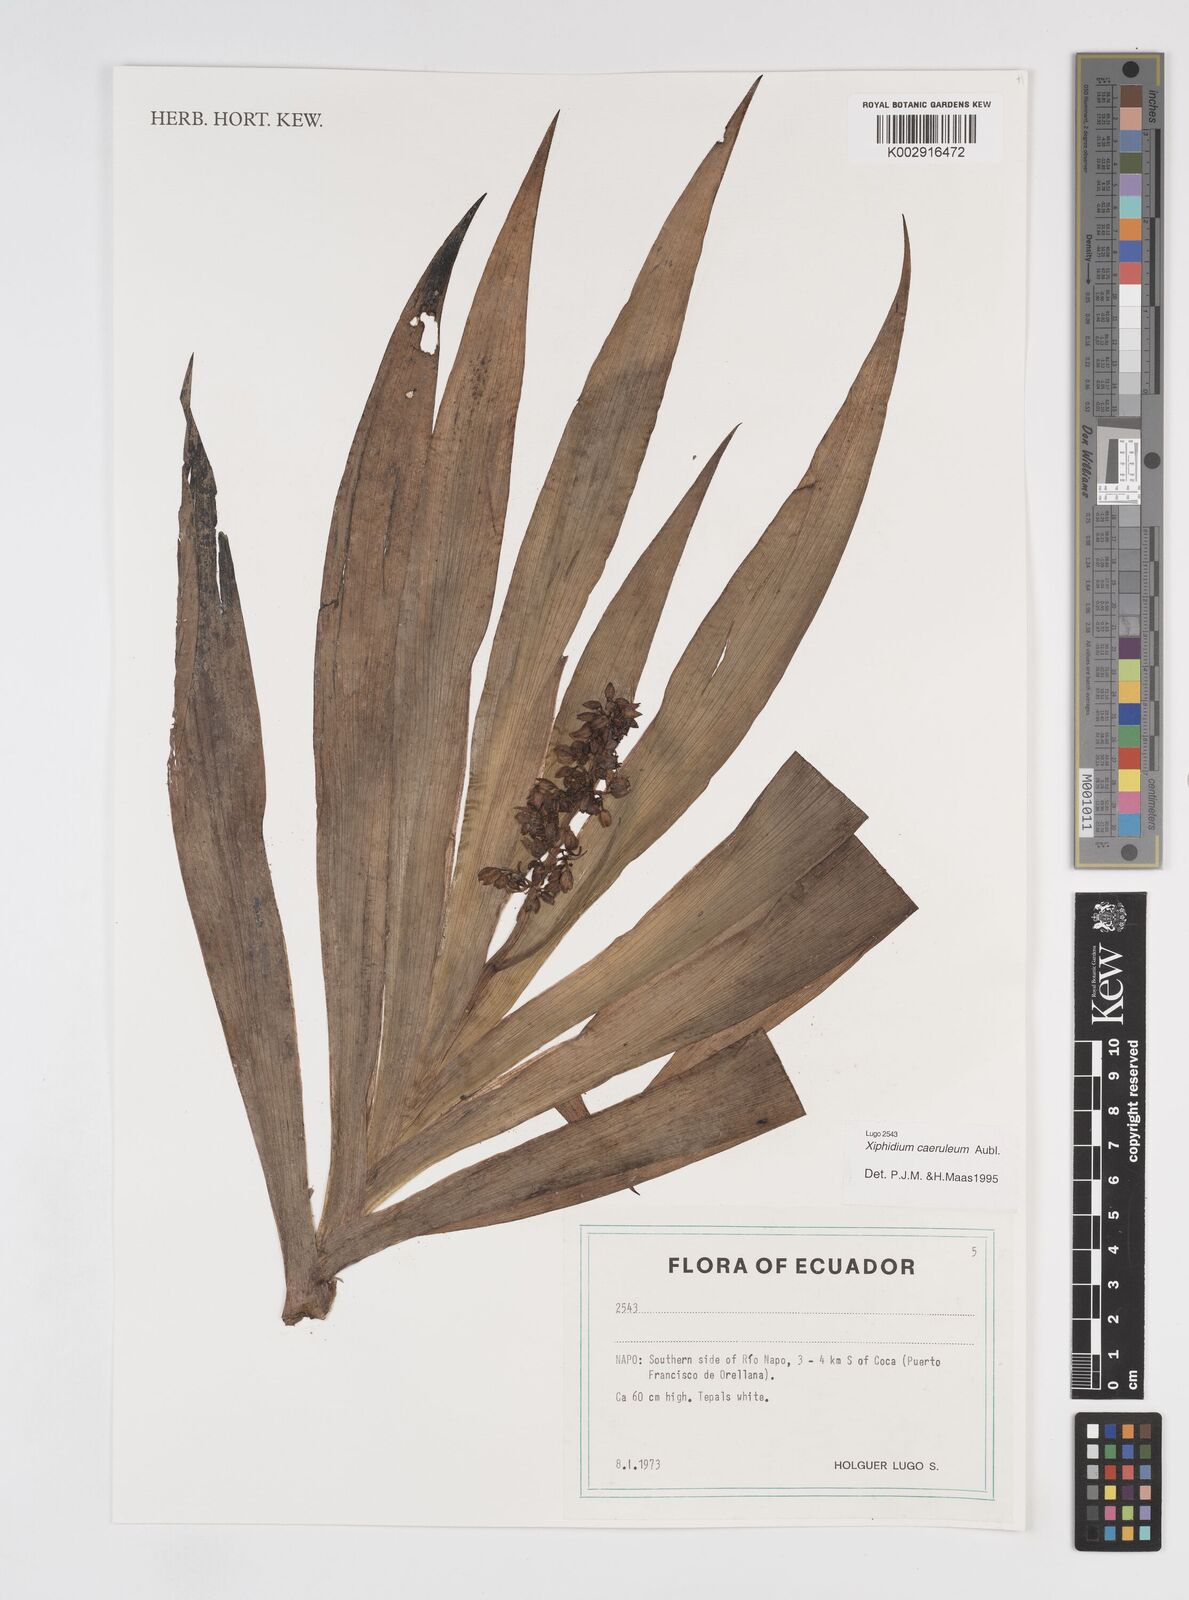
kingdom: Plantae
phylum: Tracheophyta
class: Liliopsida
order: Commelinales
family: Haemodoraceae
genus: Xiphidium
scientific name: Xiphidium caeruleum
